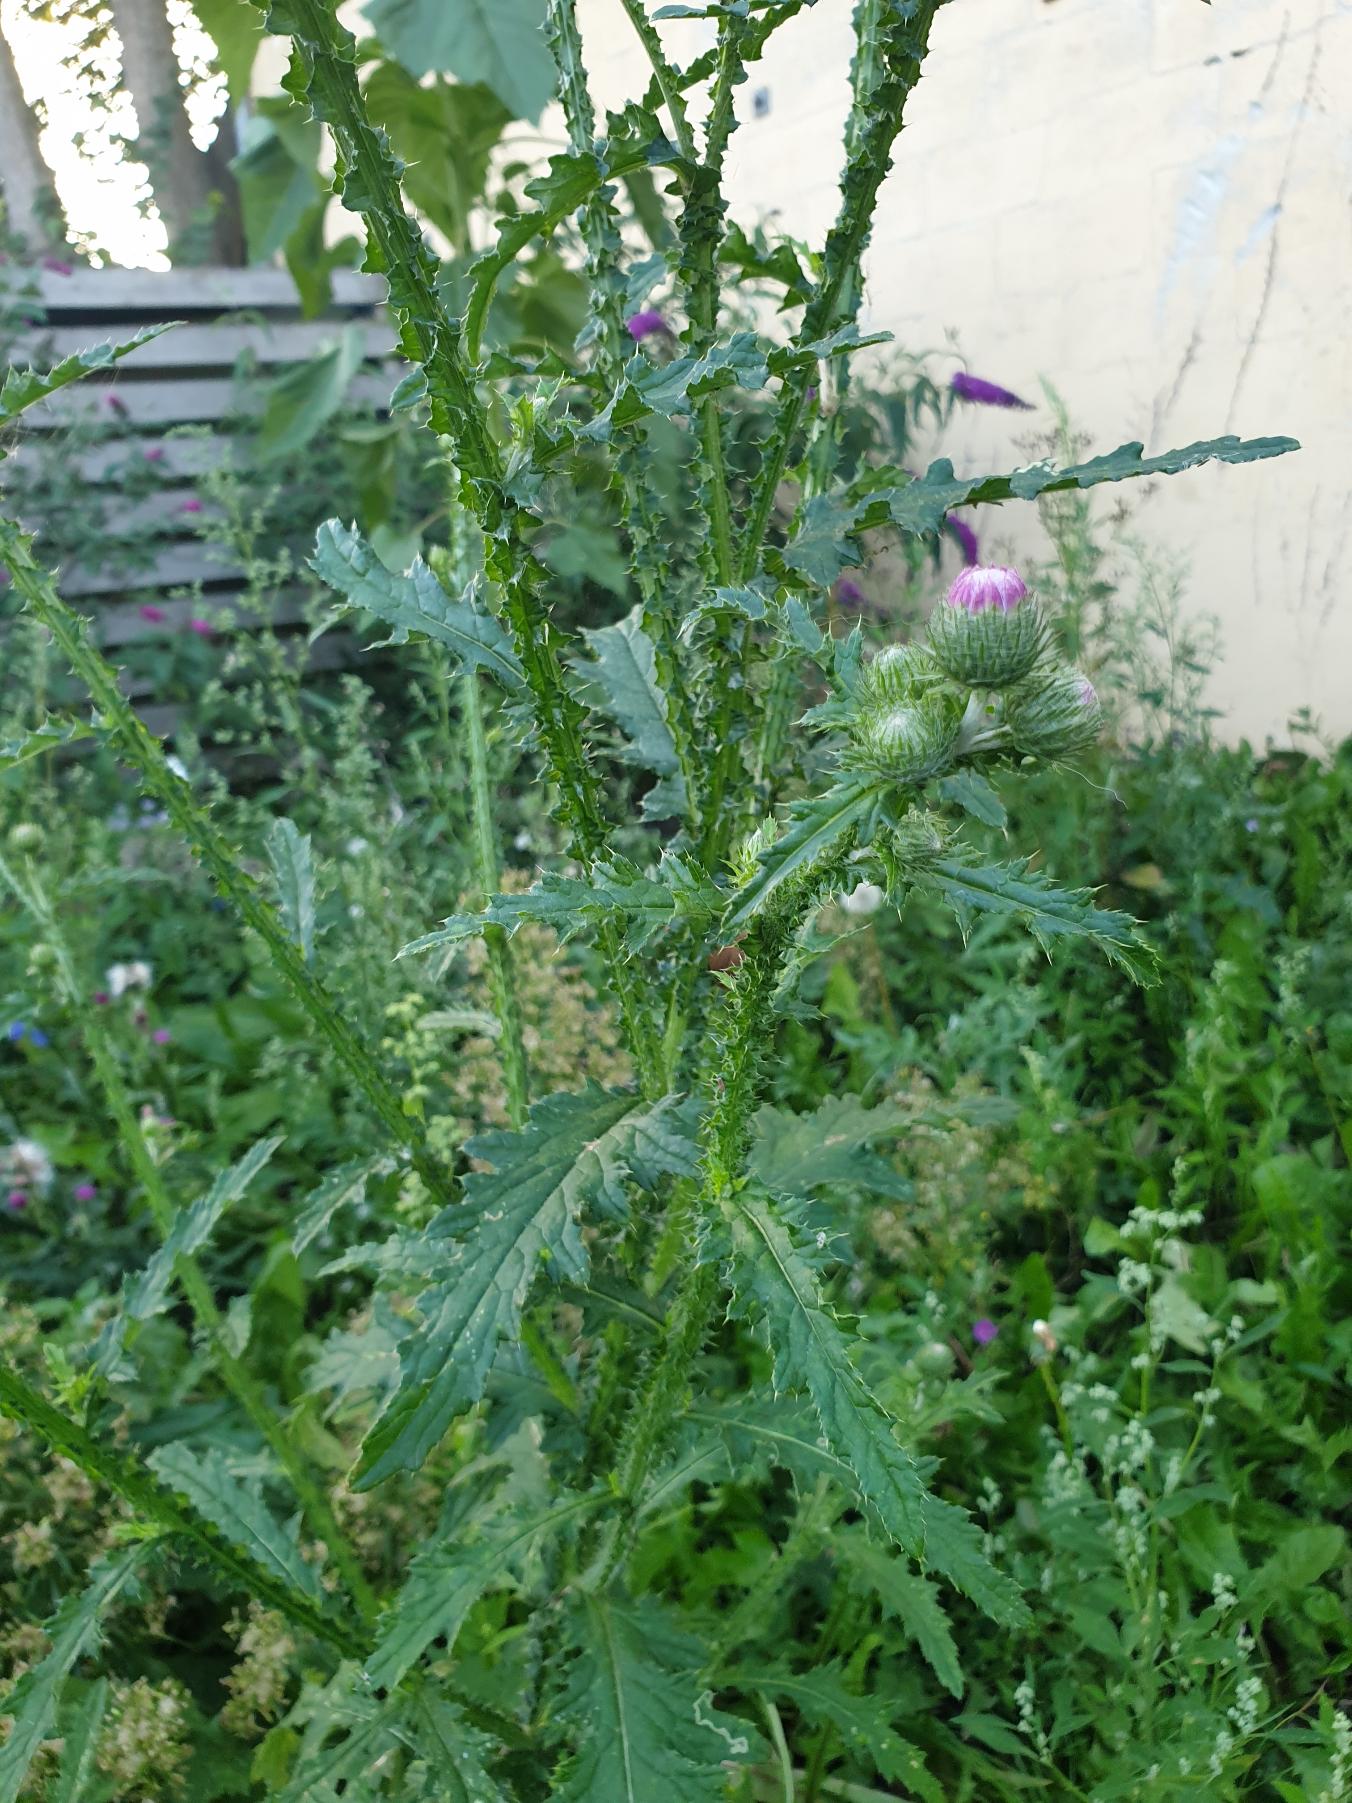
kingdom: Plantae
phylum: Tracheophyta
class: Magnoliopsida
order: Asterales
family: Asteraceae
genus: Carduus
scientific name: Carduus crispus
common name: Kruset tidsel
